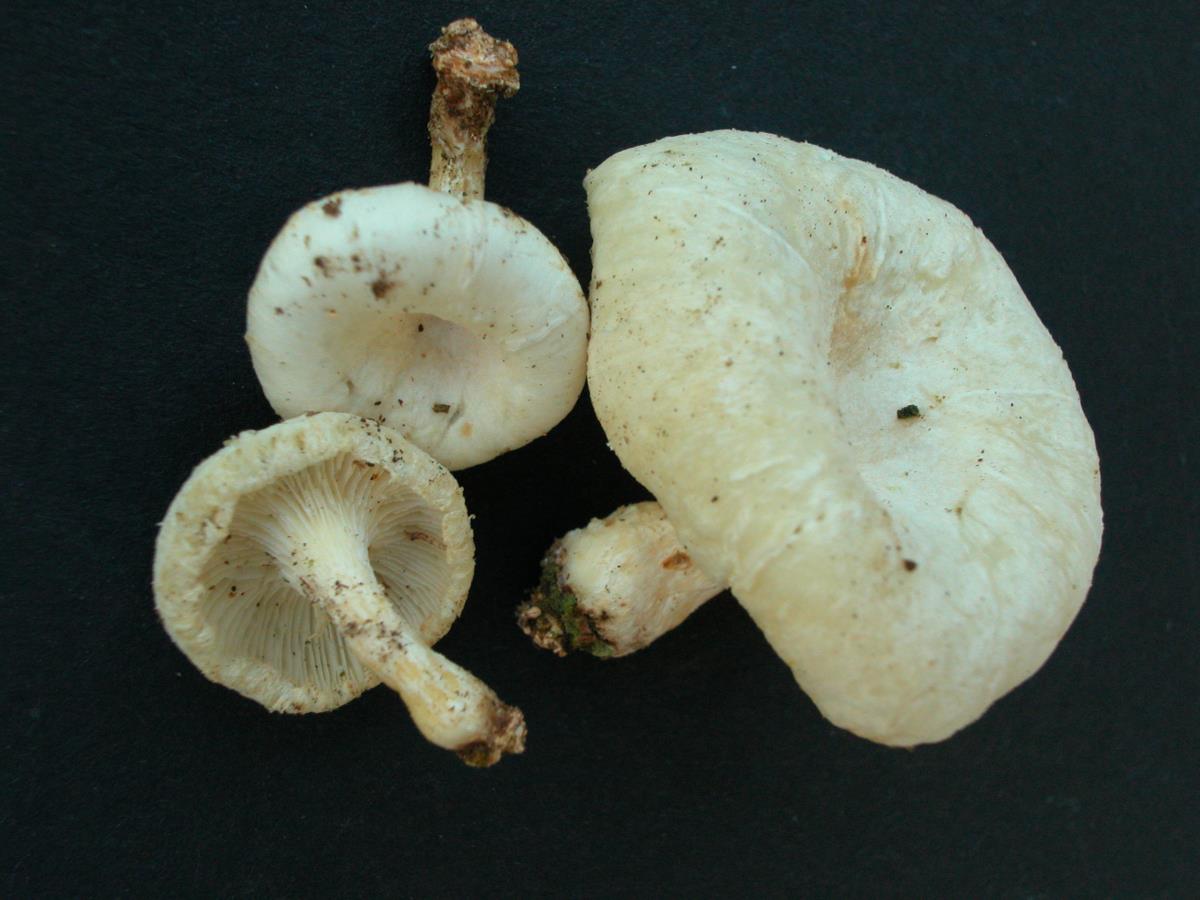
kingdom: Fungi
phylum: Basidiomycota
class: Agaricomycetes
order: Polyporales
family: Polyporaceae
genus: Lentinus
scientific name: Lentinus squarrosulus
